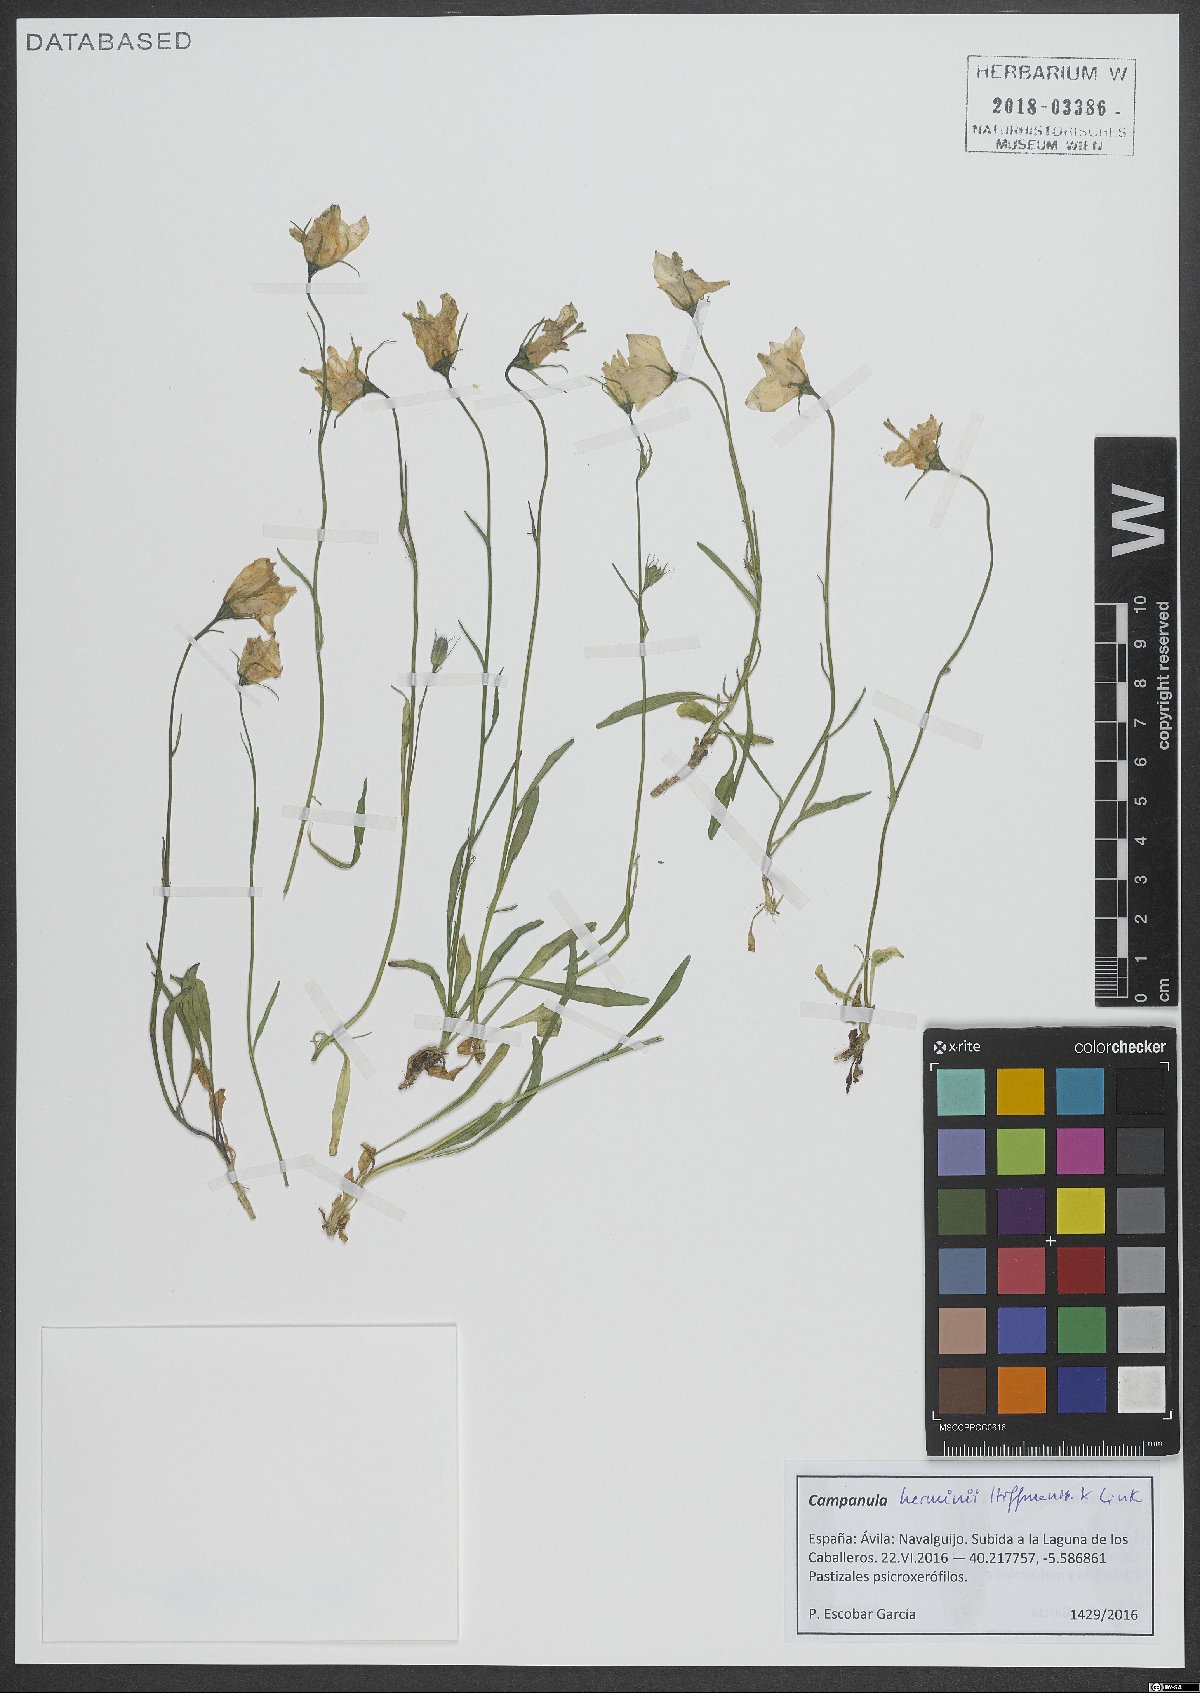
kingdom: Plantae
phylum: Tracheophyta
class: Magnoliopsida
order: Asterales
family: Campanulaceae
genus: Campanula
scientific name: Campanula herminii
